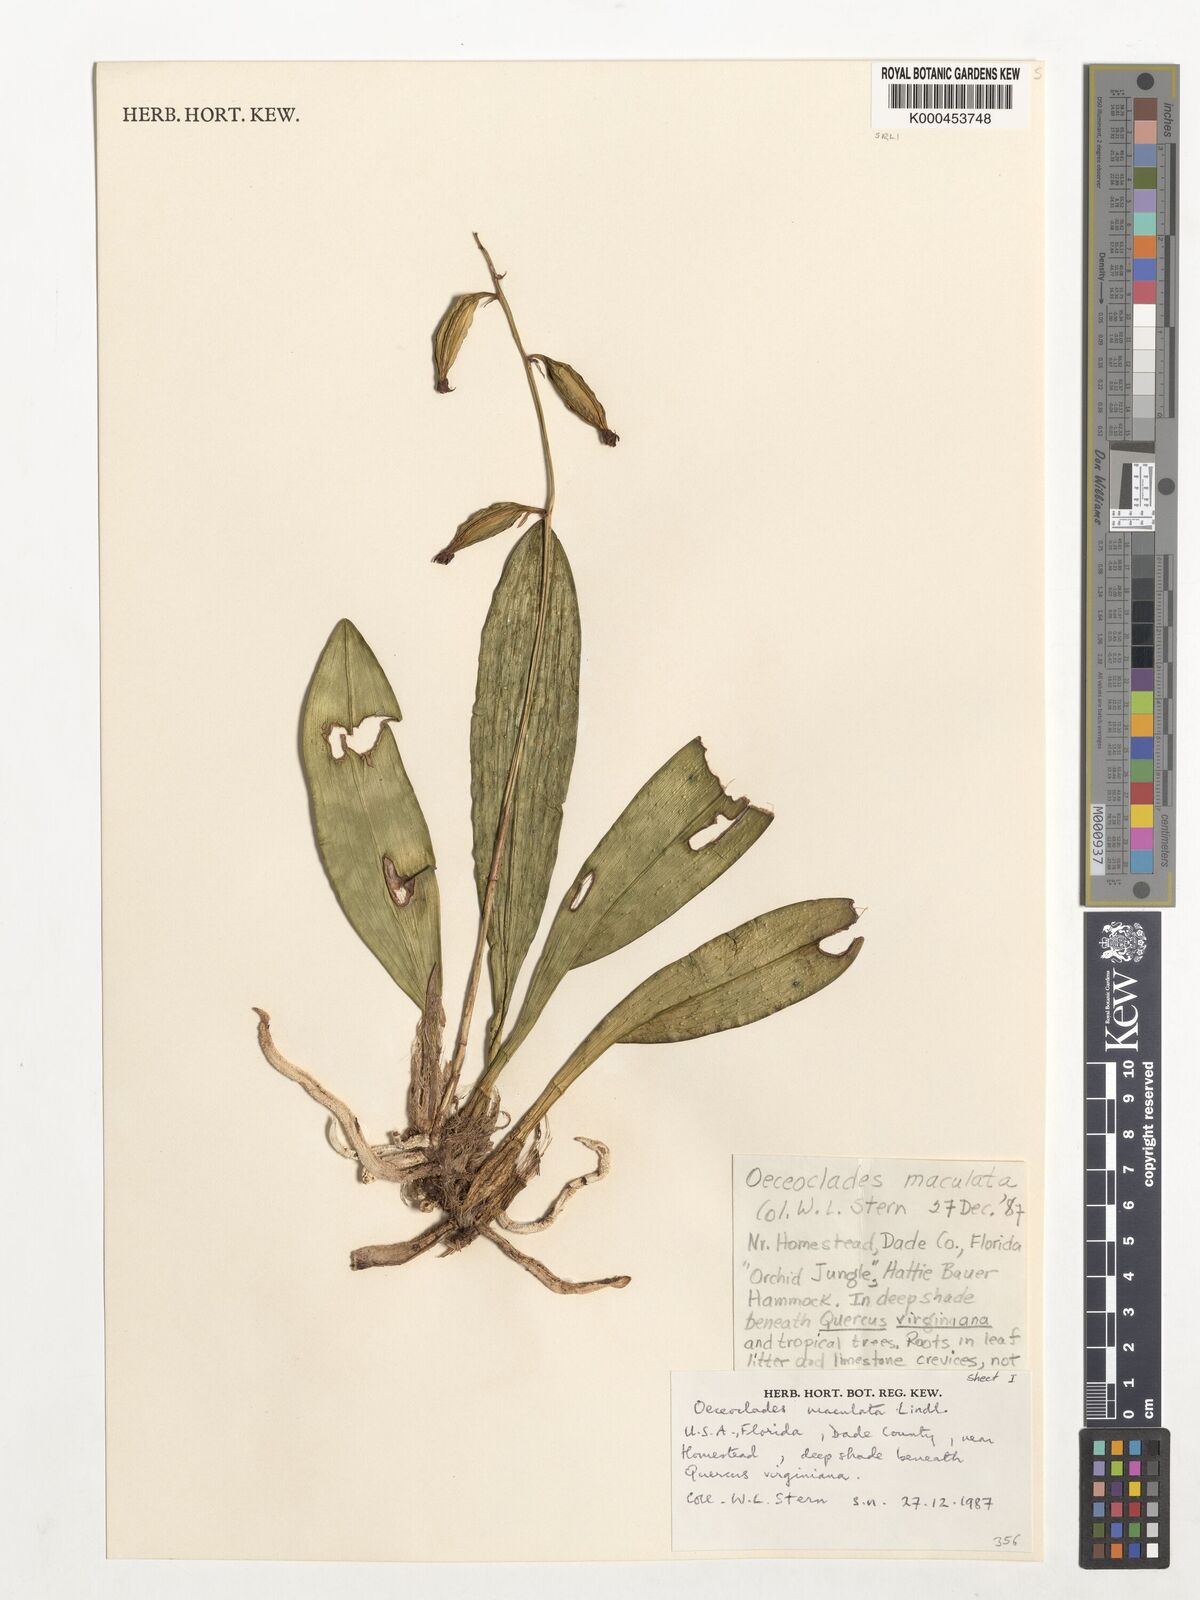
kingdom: Plantae
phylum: Tracheophyta
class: Liliopsida
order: Asparagales
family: Orchidaceae
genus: Eulophia
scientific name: Eulophia maculata
